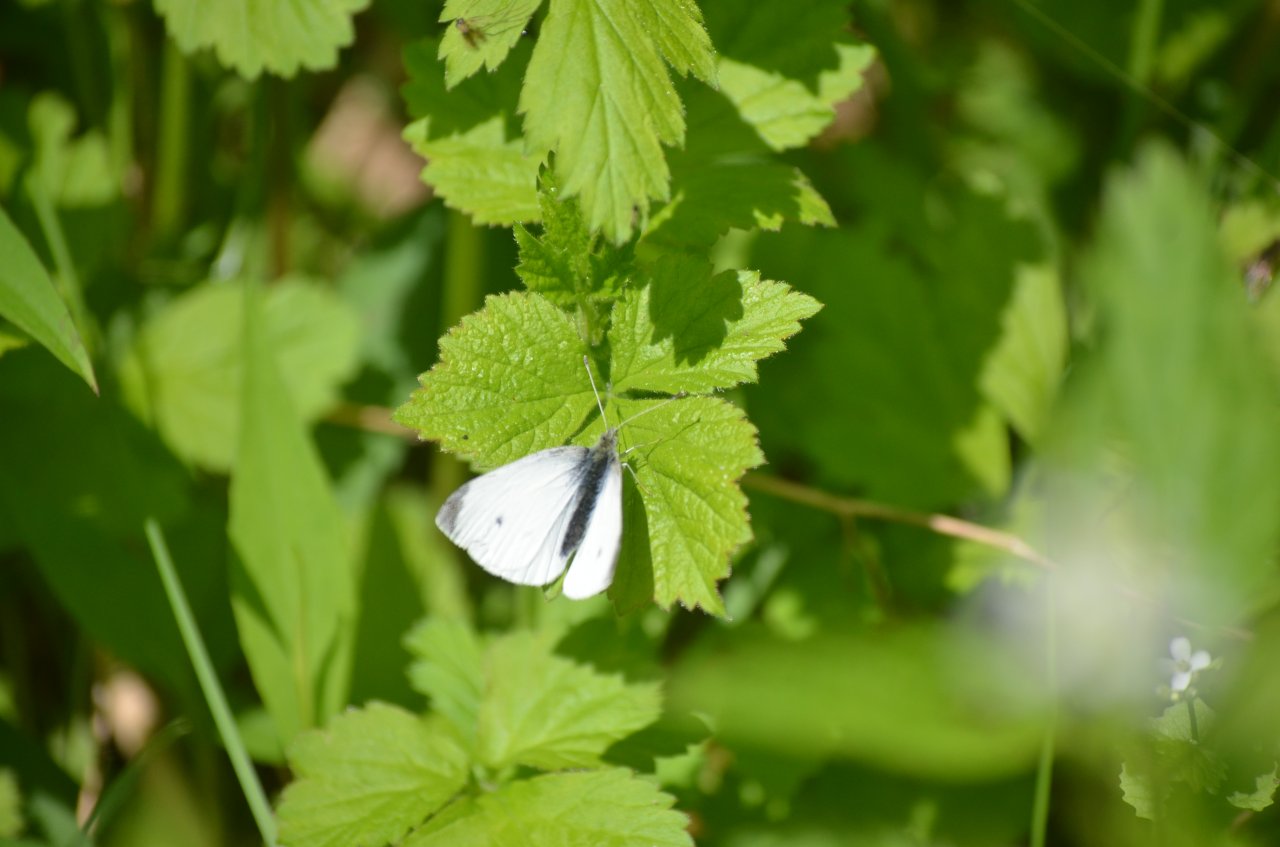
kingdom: Animalia
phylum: Arthropoda
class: Insecta
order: Lepidoptera
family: Pieridae
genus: Pieris
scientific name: Pieris rapae
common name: Cabbage White
